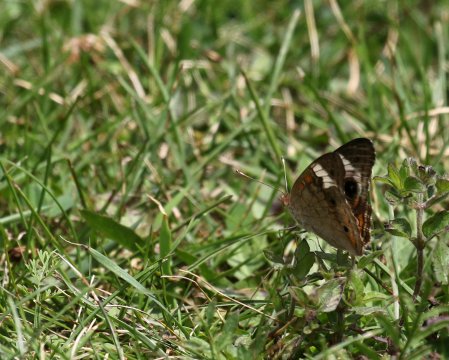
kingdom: Animalia
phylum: Arthropoda
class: Insecta
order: Lepidoptera
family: Nymphalidae
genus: Junonia
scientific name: Junonia coenia
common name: Common Buckeye
